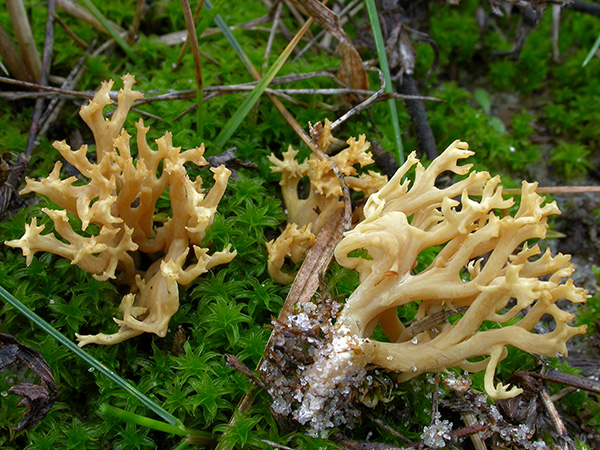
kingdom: Fungi
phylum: Basidiomycota
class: Agaricomycetes
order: Gomphales
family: Gomphaceae
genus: Phaeoclavulina
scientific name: Phaeoclavulina flaccida
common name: spinkel koralsvamp
